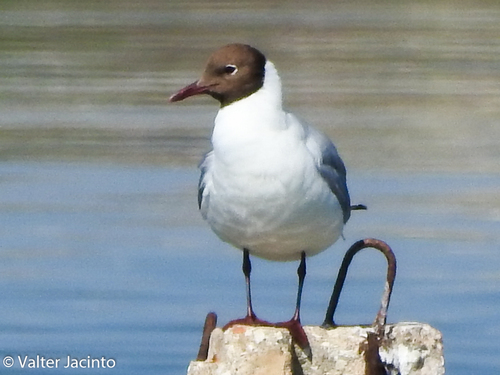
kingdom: Animalia
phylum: Chordata
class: Aves
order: Charadriiformes
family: Laridae
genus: Chroicocephalus
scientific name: Chroicocephalus ridibundus
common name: Black-headed gull
